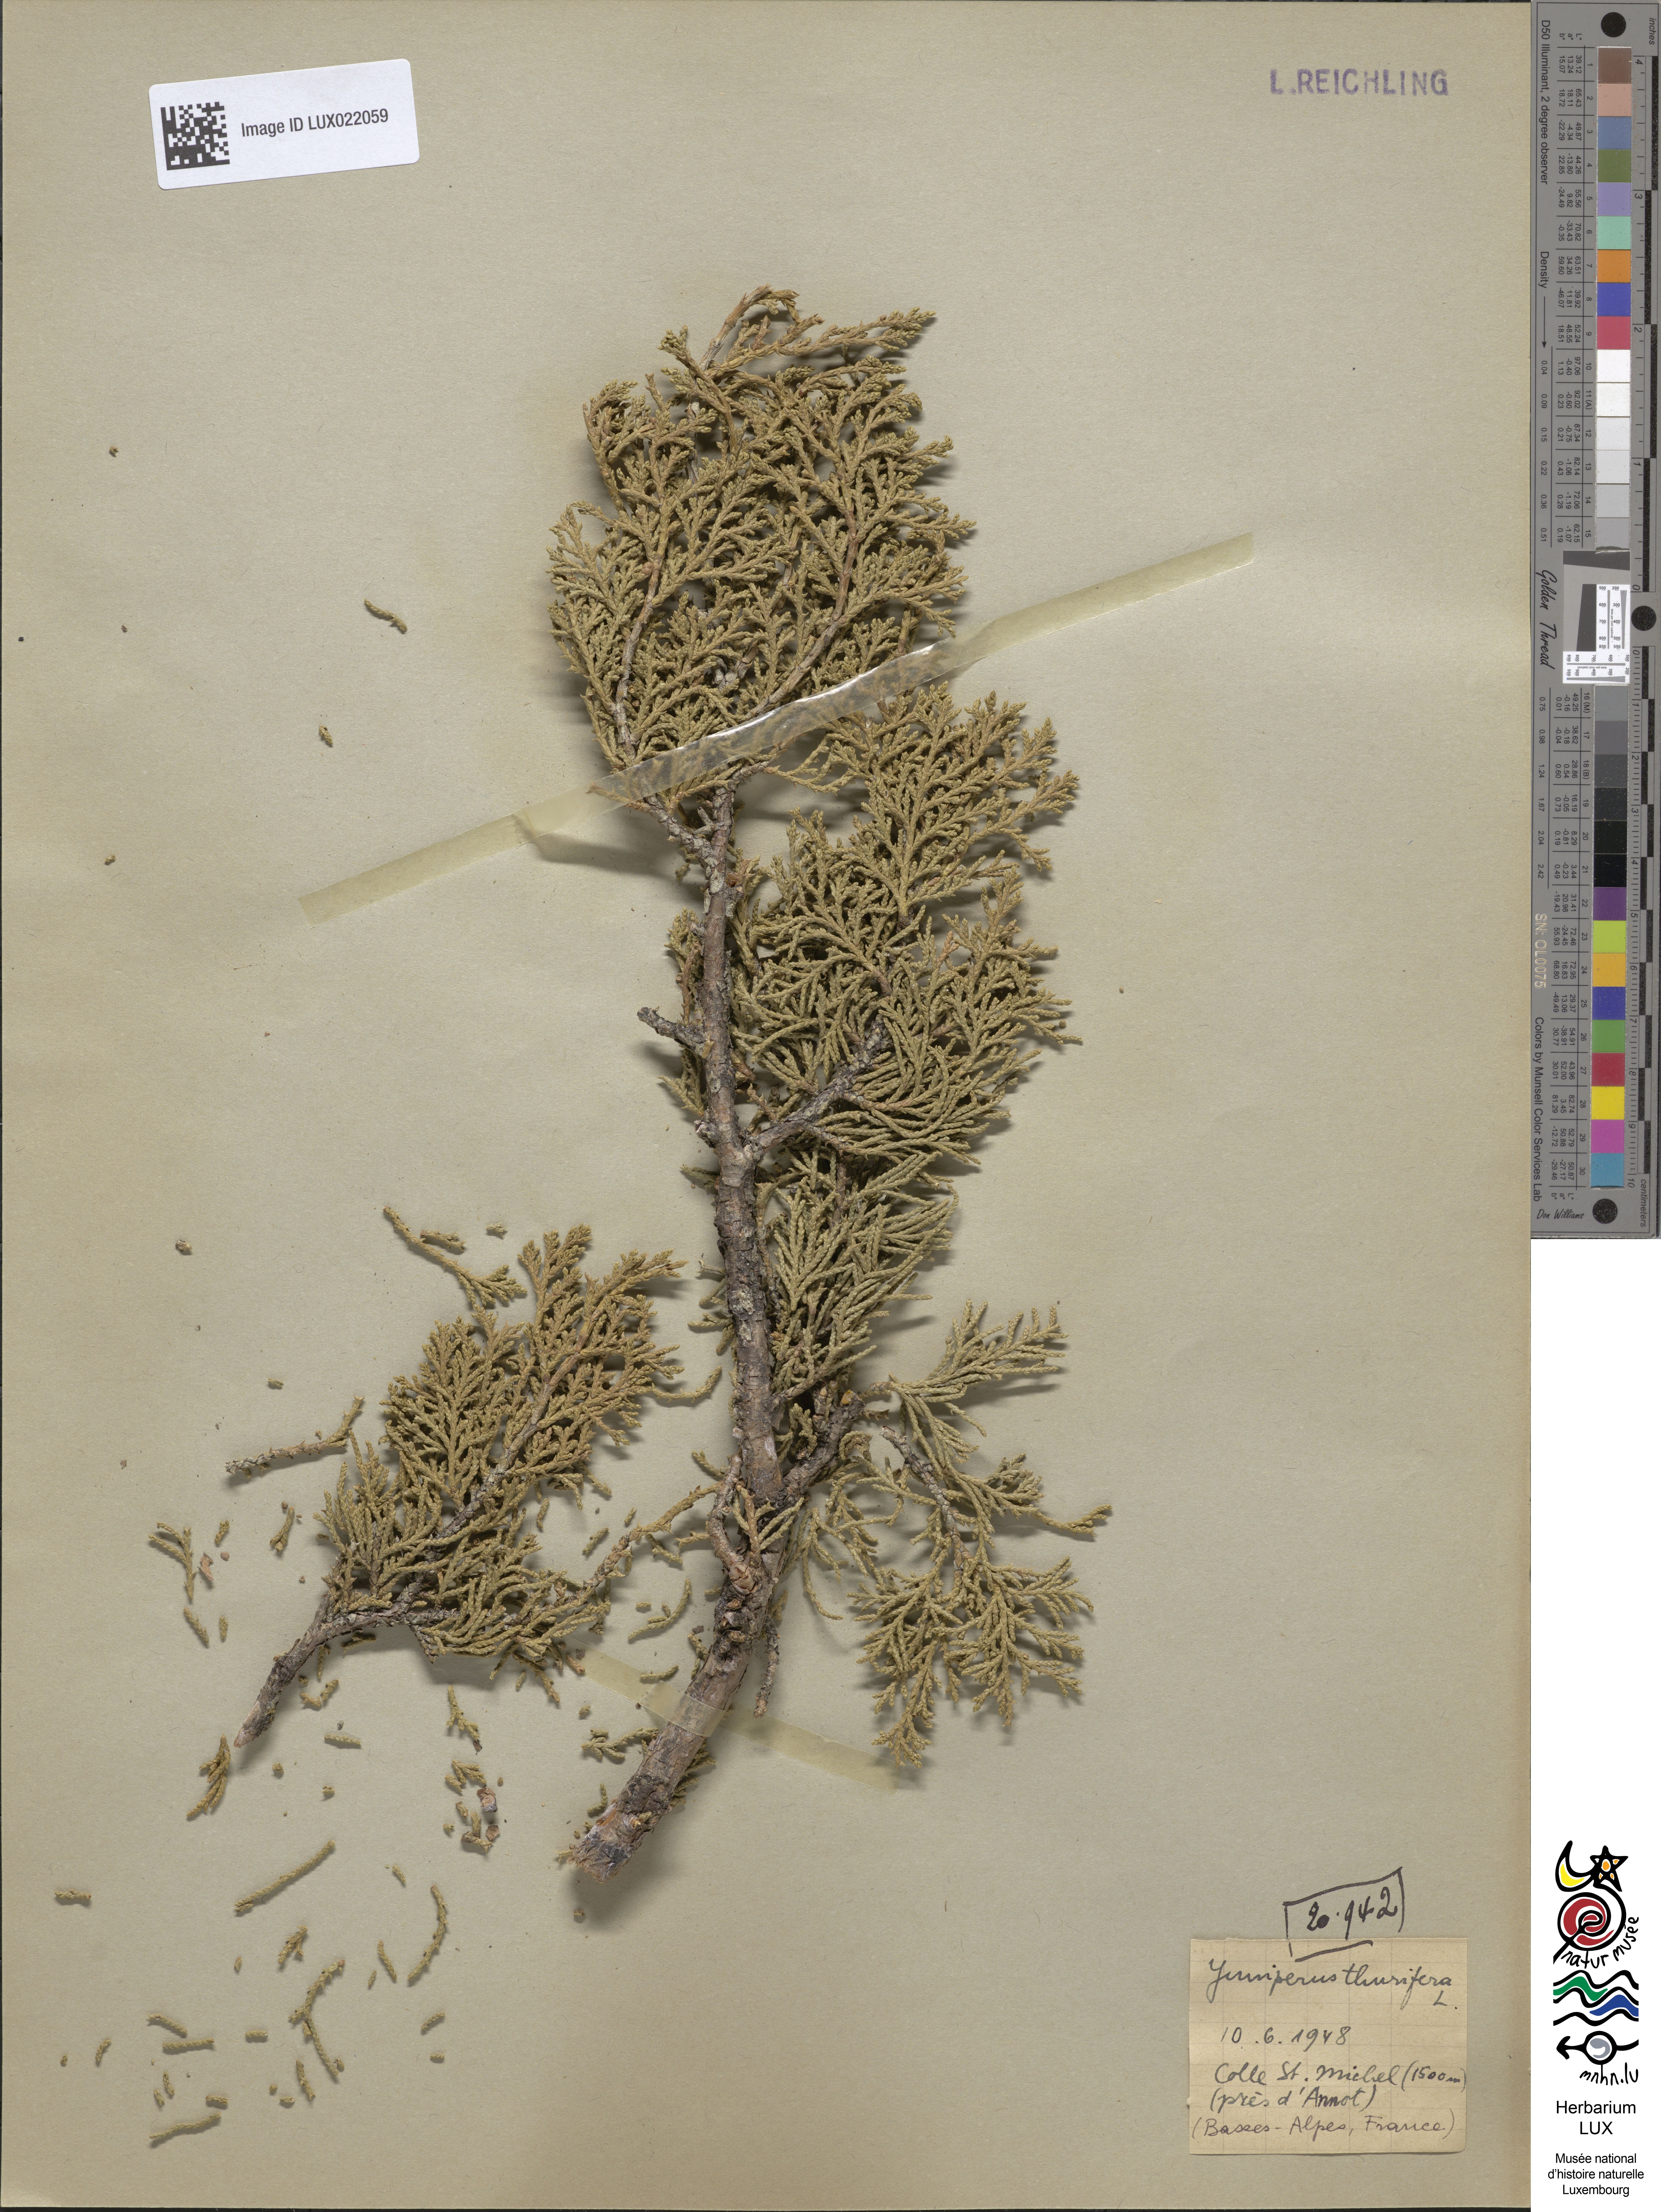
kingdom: Plantae
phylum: Tracheophyta
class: Pinopsida
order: Pinales
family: Cupressaceae
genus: Juniperus
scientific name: Juniperus thurifera
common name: Incense juniper
